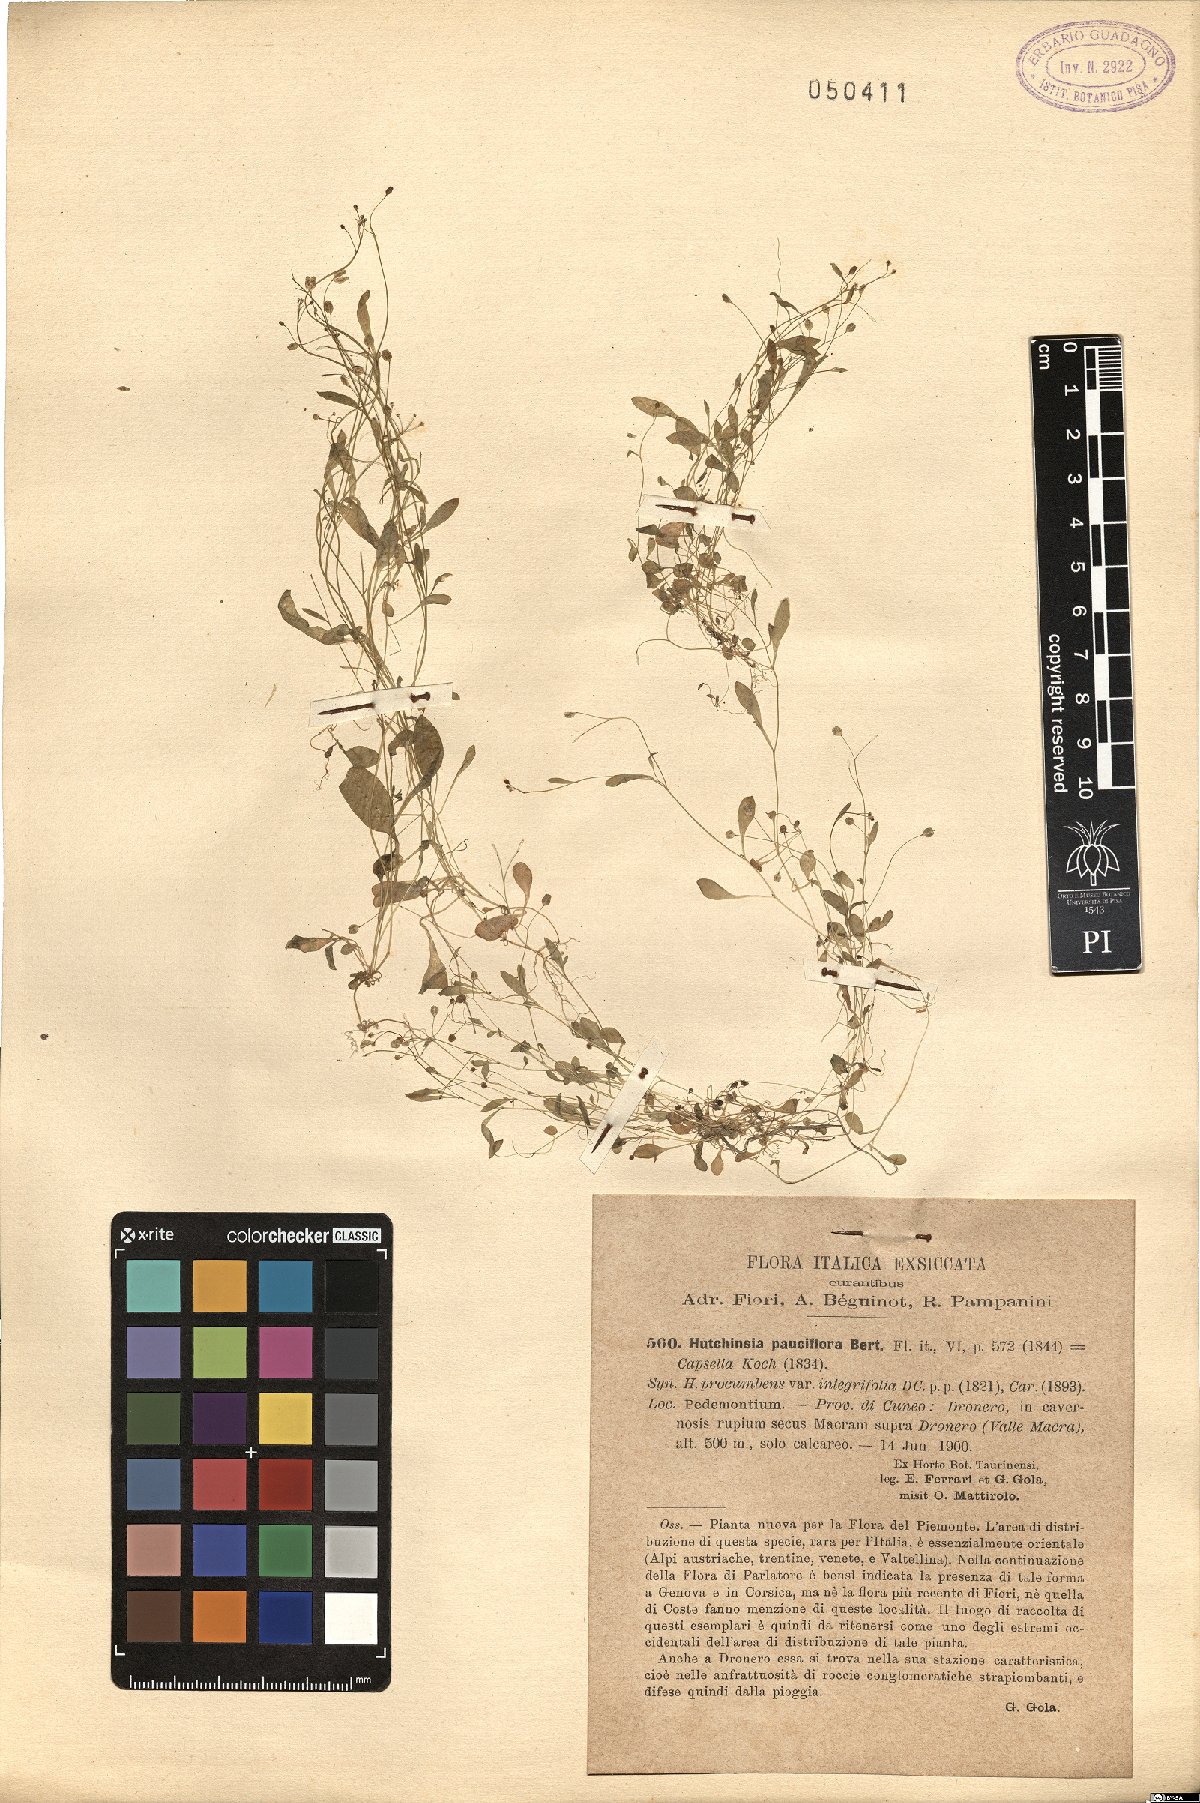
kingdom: Plantae
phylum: Tracheophyta
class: Magnoliopsida
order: Brassicales
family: Brassicaceae
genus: Hornungia
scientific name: Hornungia procumbens
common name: Oval purse
